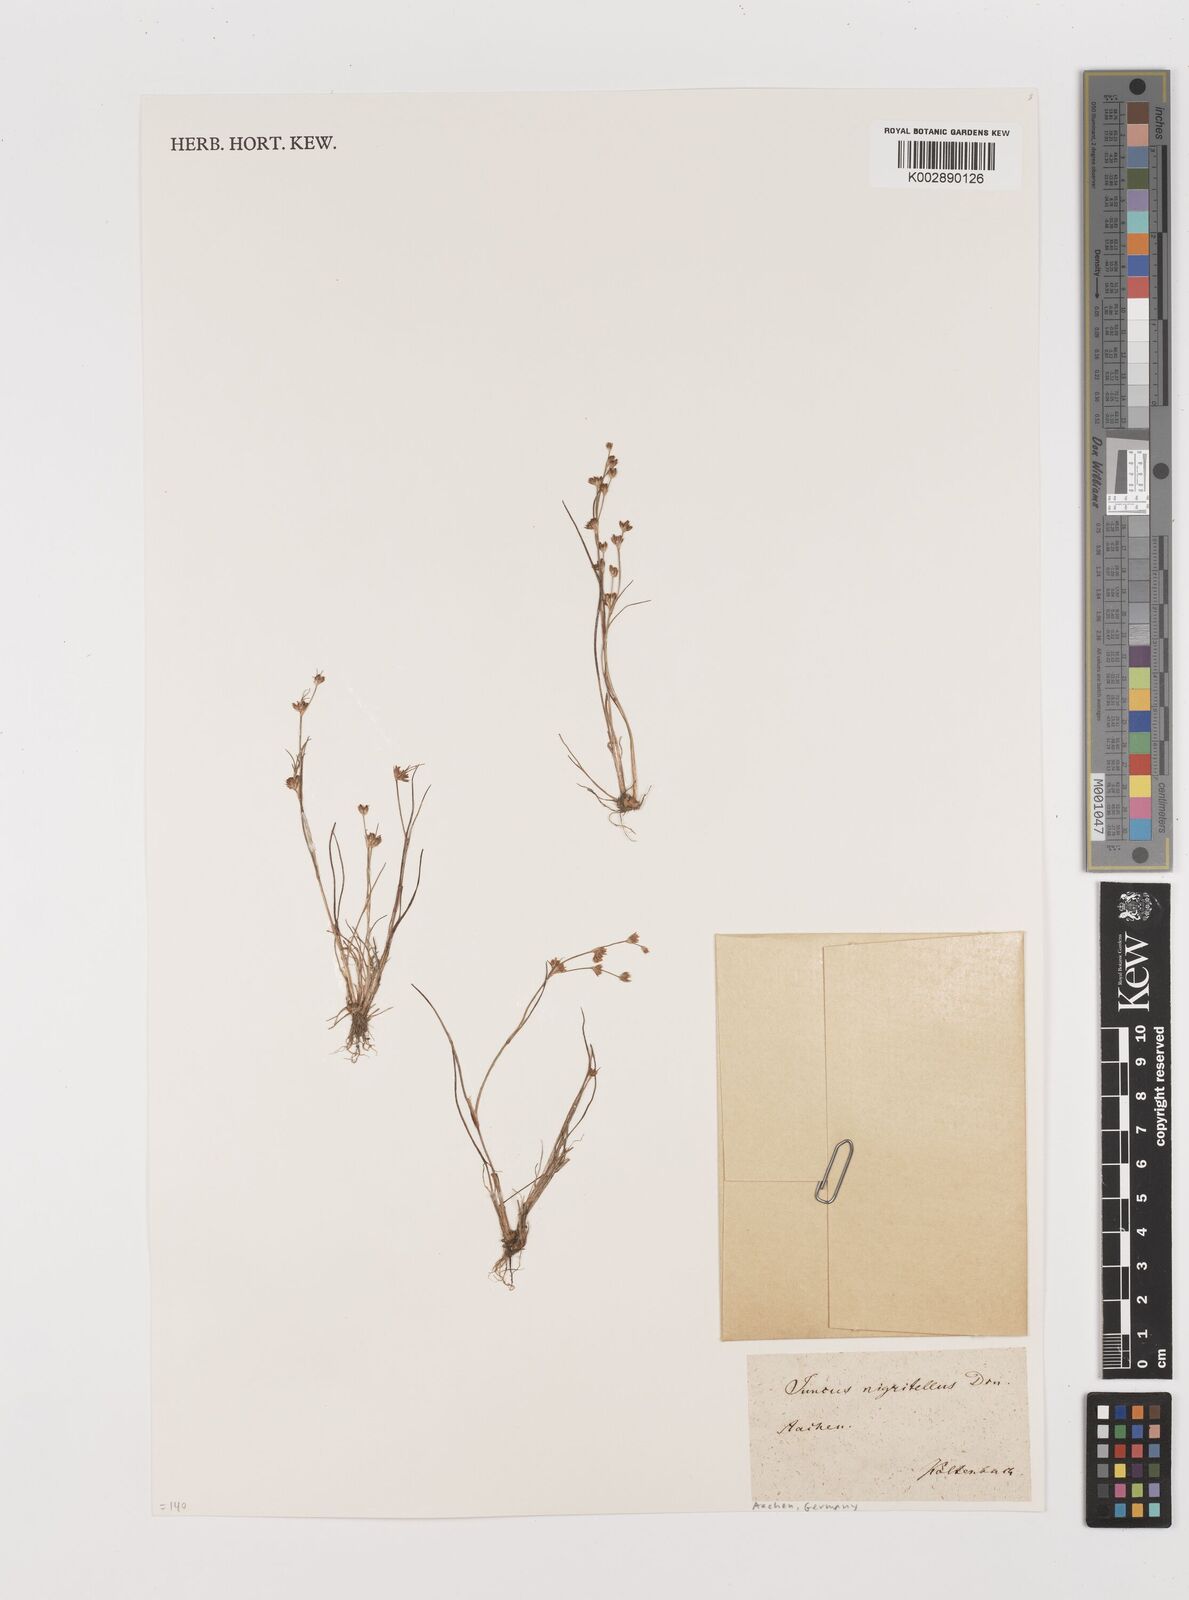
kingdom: Plantae
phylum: Tracheophyta
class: Liliopsida
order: Poales
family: Juncaceae
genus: Juncus
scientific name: Juncus articulatus
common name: Jointed rush
